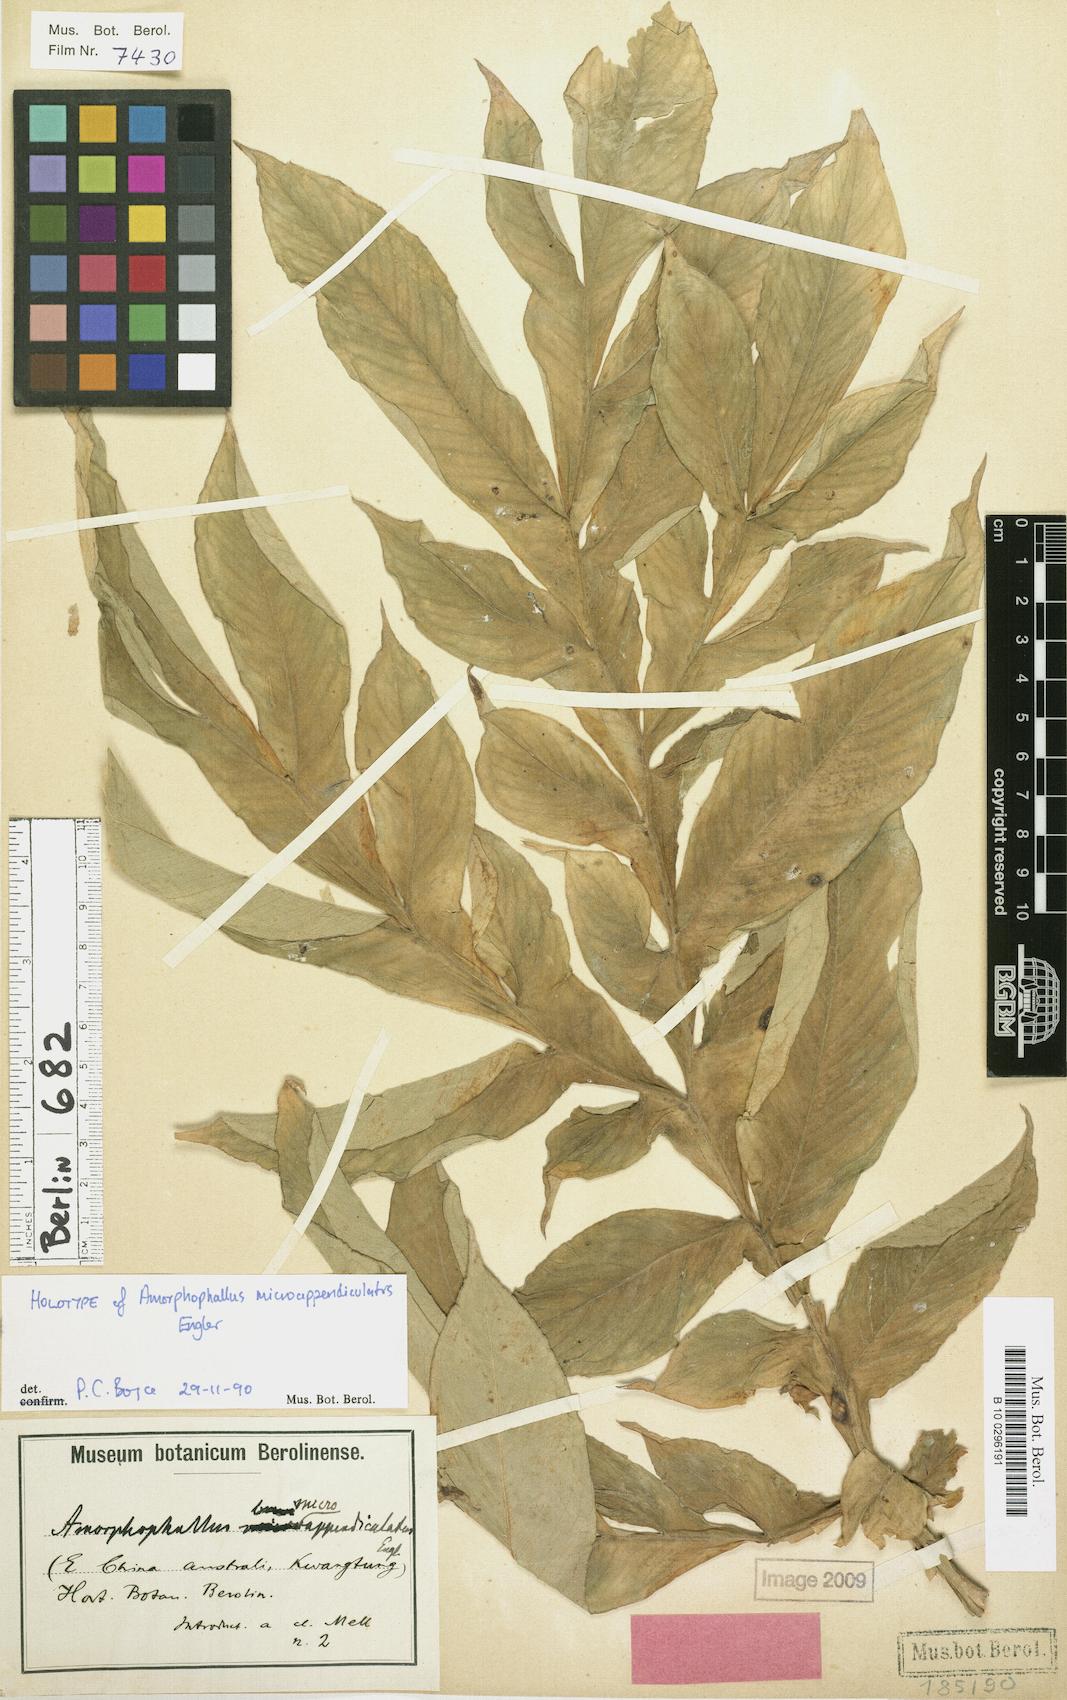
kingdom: Plantae
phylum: Tracheophyta
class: Liliopsida
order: Alismatales
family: Araceae
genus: Amorphophallus
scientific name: Amorphophallus paeoniifolius
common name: Telinga-potato
